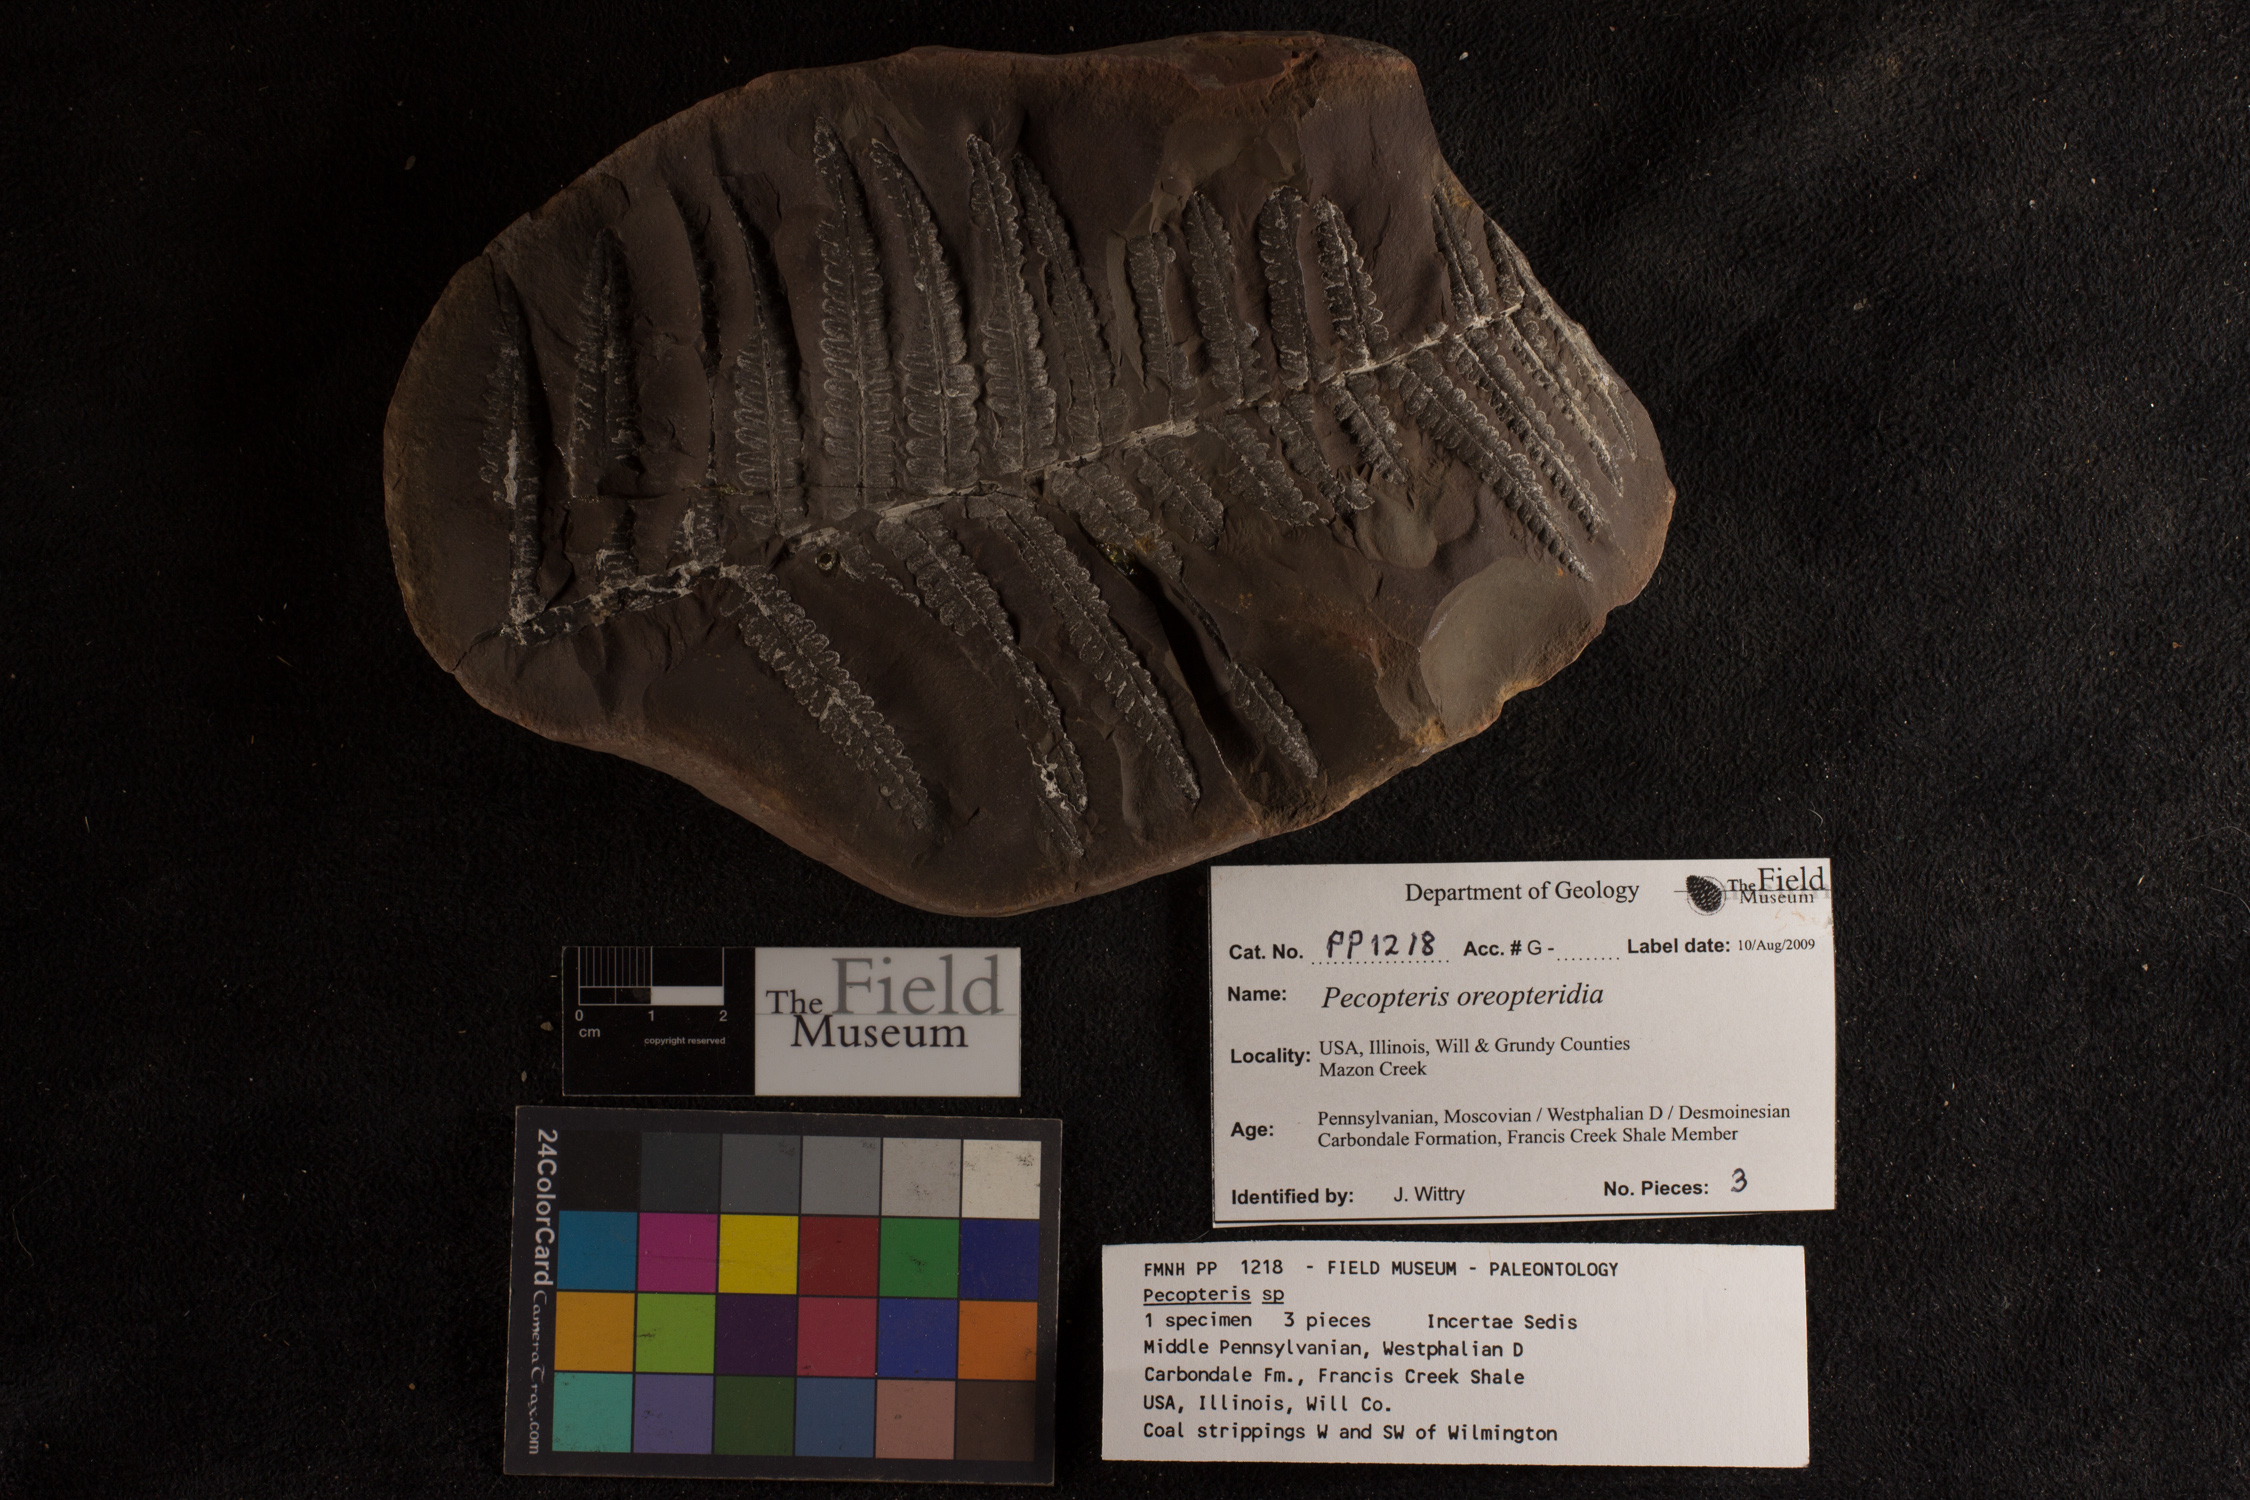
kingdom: Plantae
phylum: Tracheophyta
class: Polypodiopsida
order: Marattiales
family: Asterothecaceae
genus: Pecopteris
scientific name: Pecopteris
